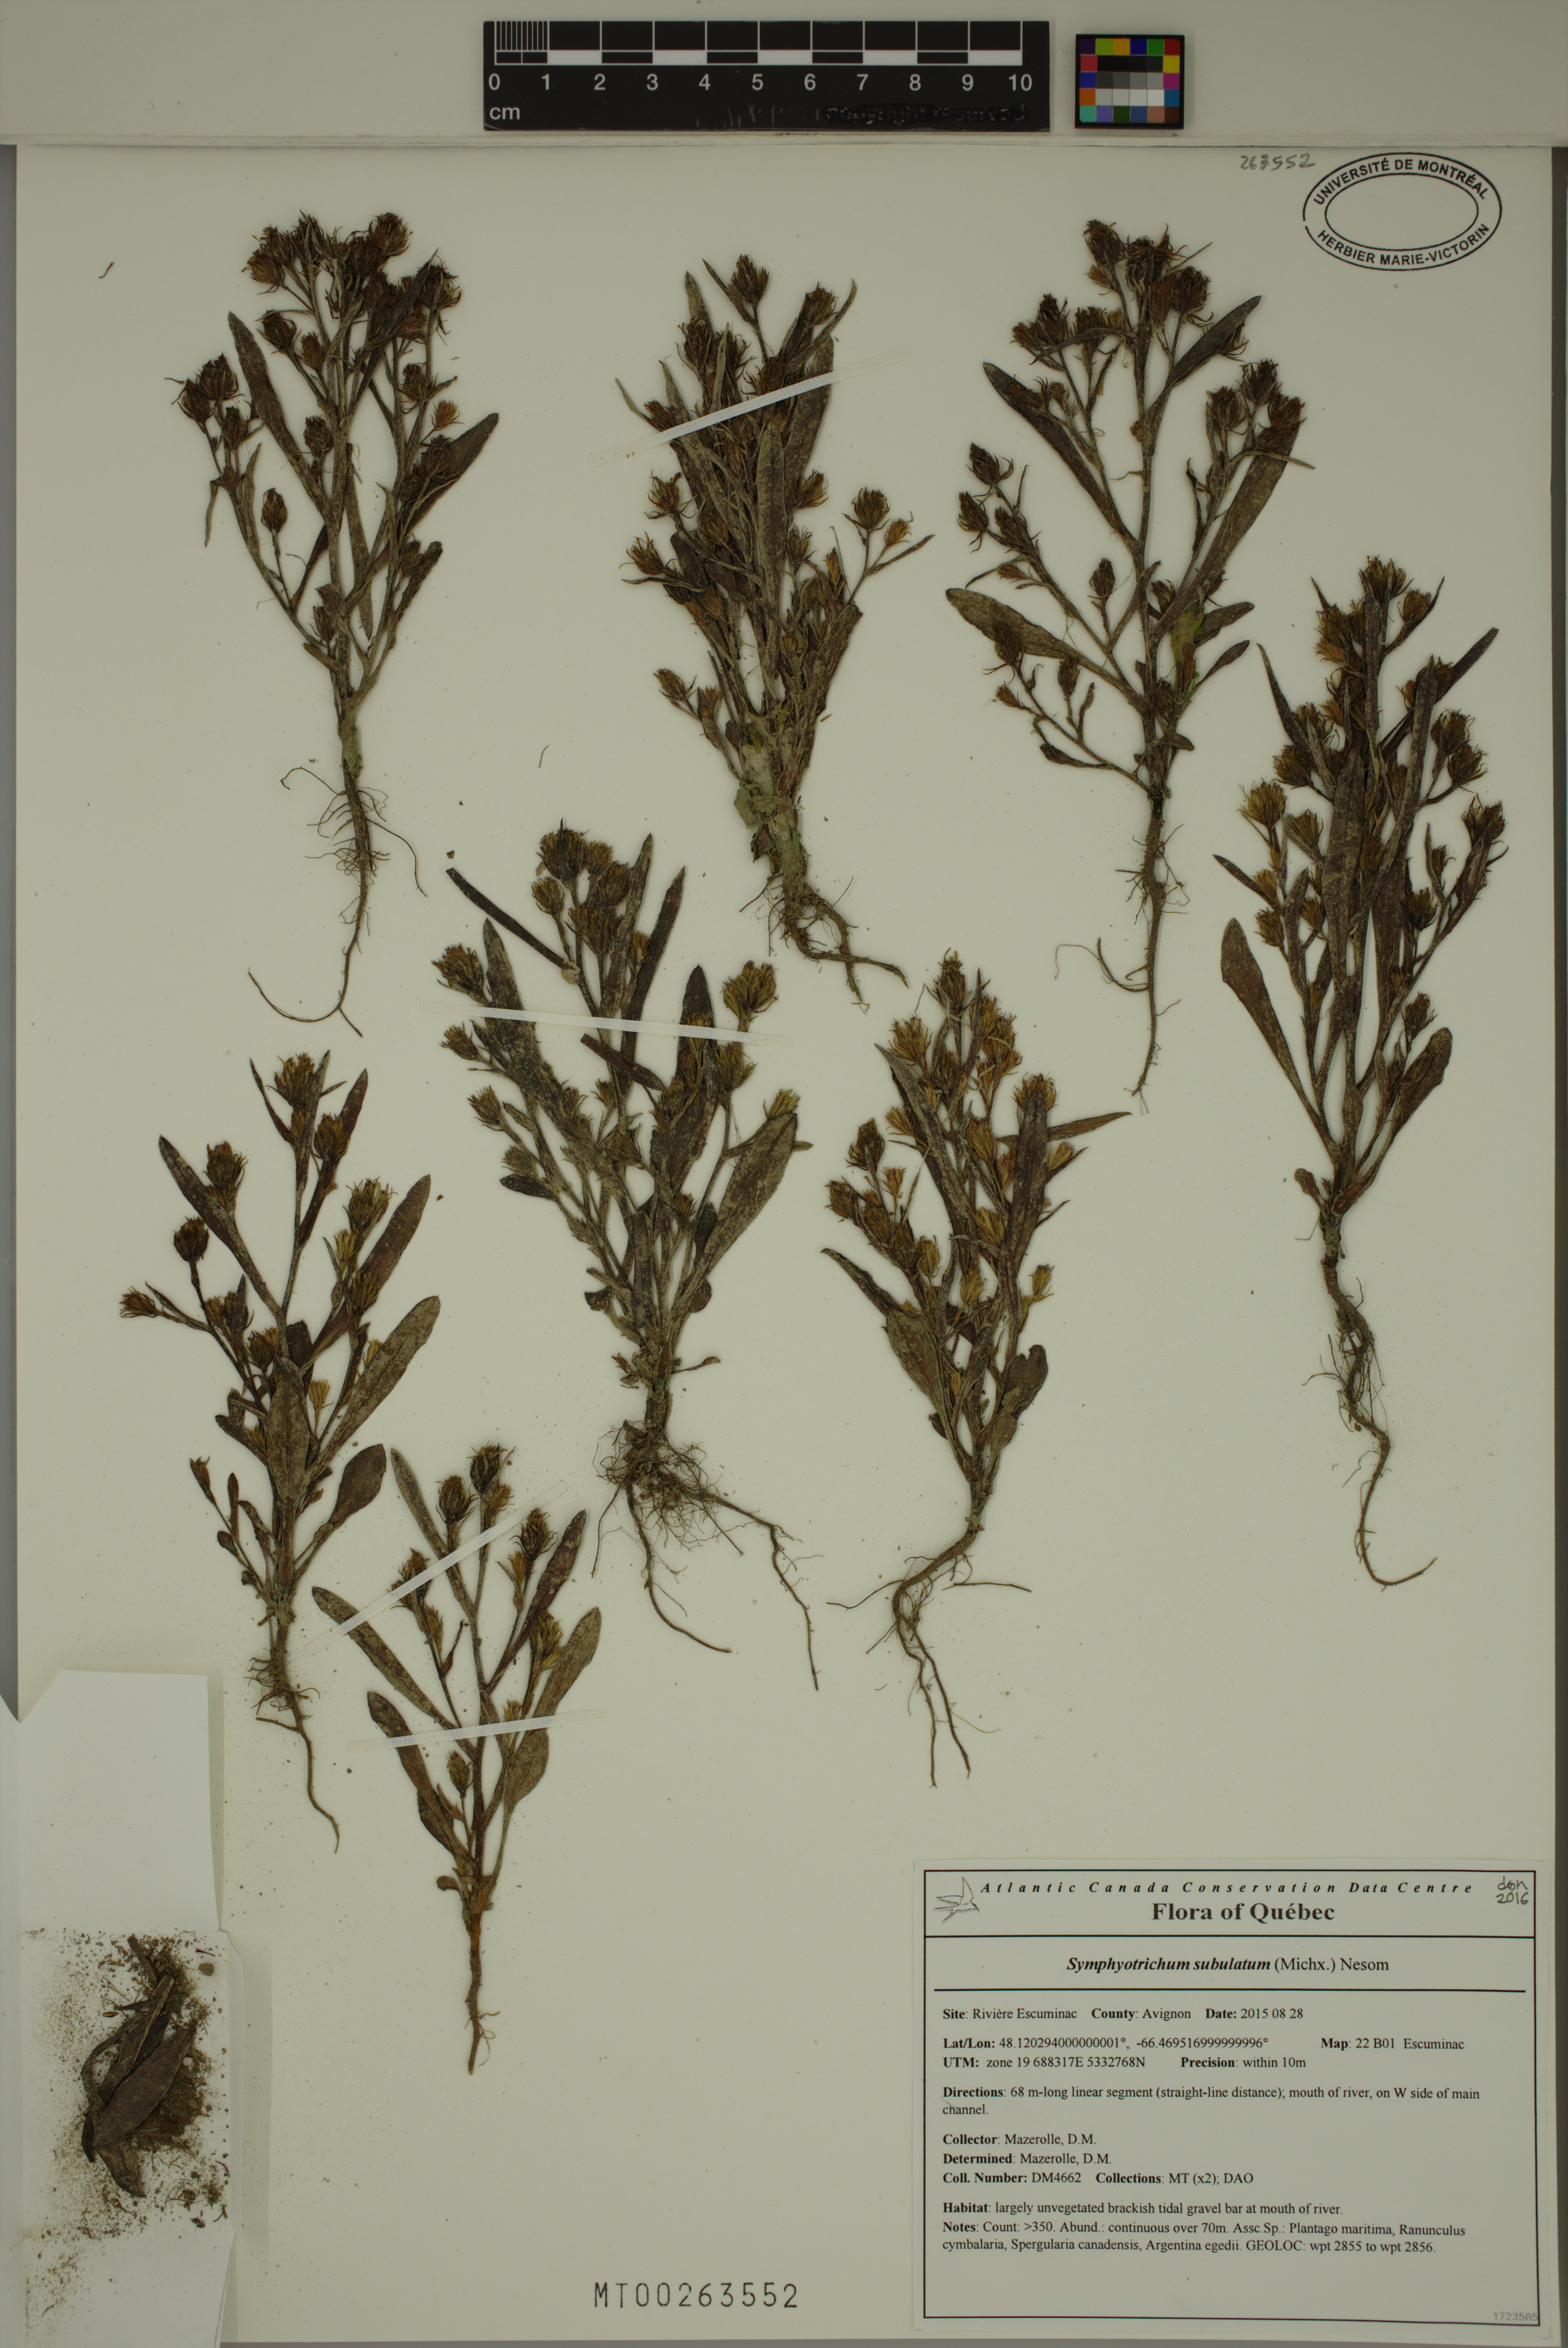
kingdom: Plantae
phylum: Tracheophyta
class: Magnoliopsida
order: Asterales
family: Asteraceae
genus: Symphyotrichum
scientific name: Symphyotrichum subulatum
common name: Annual saltmarsh aster
